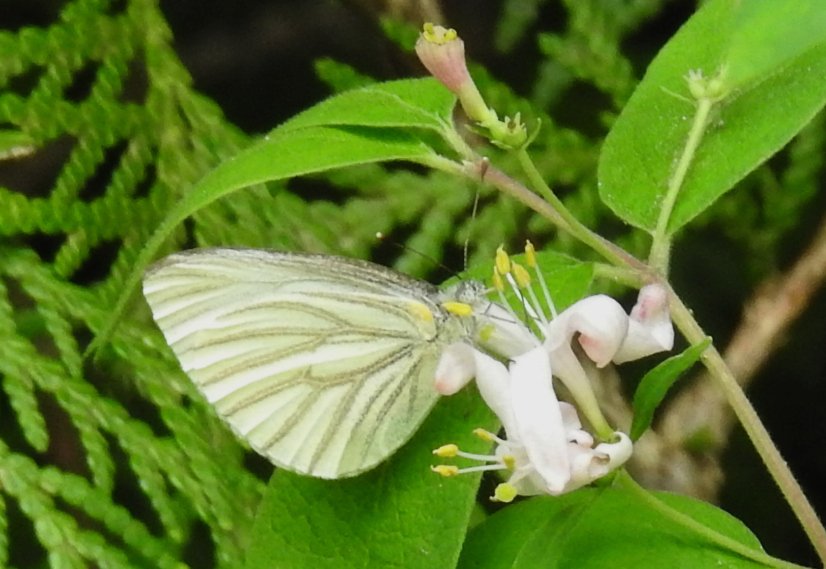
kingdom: Animalia
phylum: Arthropoda
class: Insecta
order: Lepidoptera
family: Pieridae
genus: Pieris
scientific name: Pieris oleracea
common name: Mustard White
